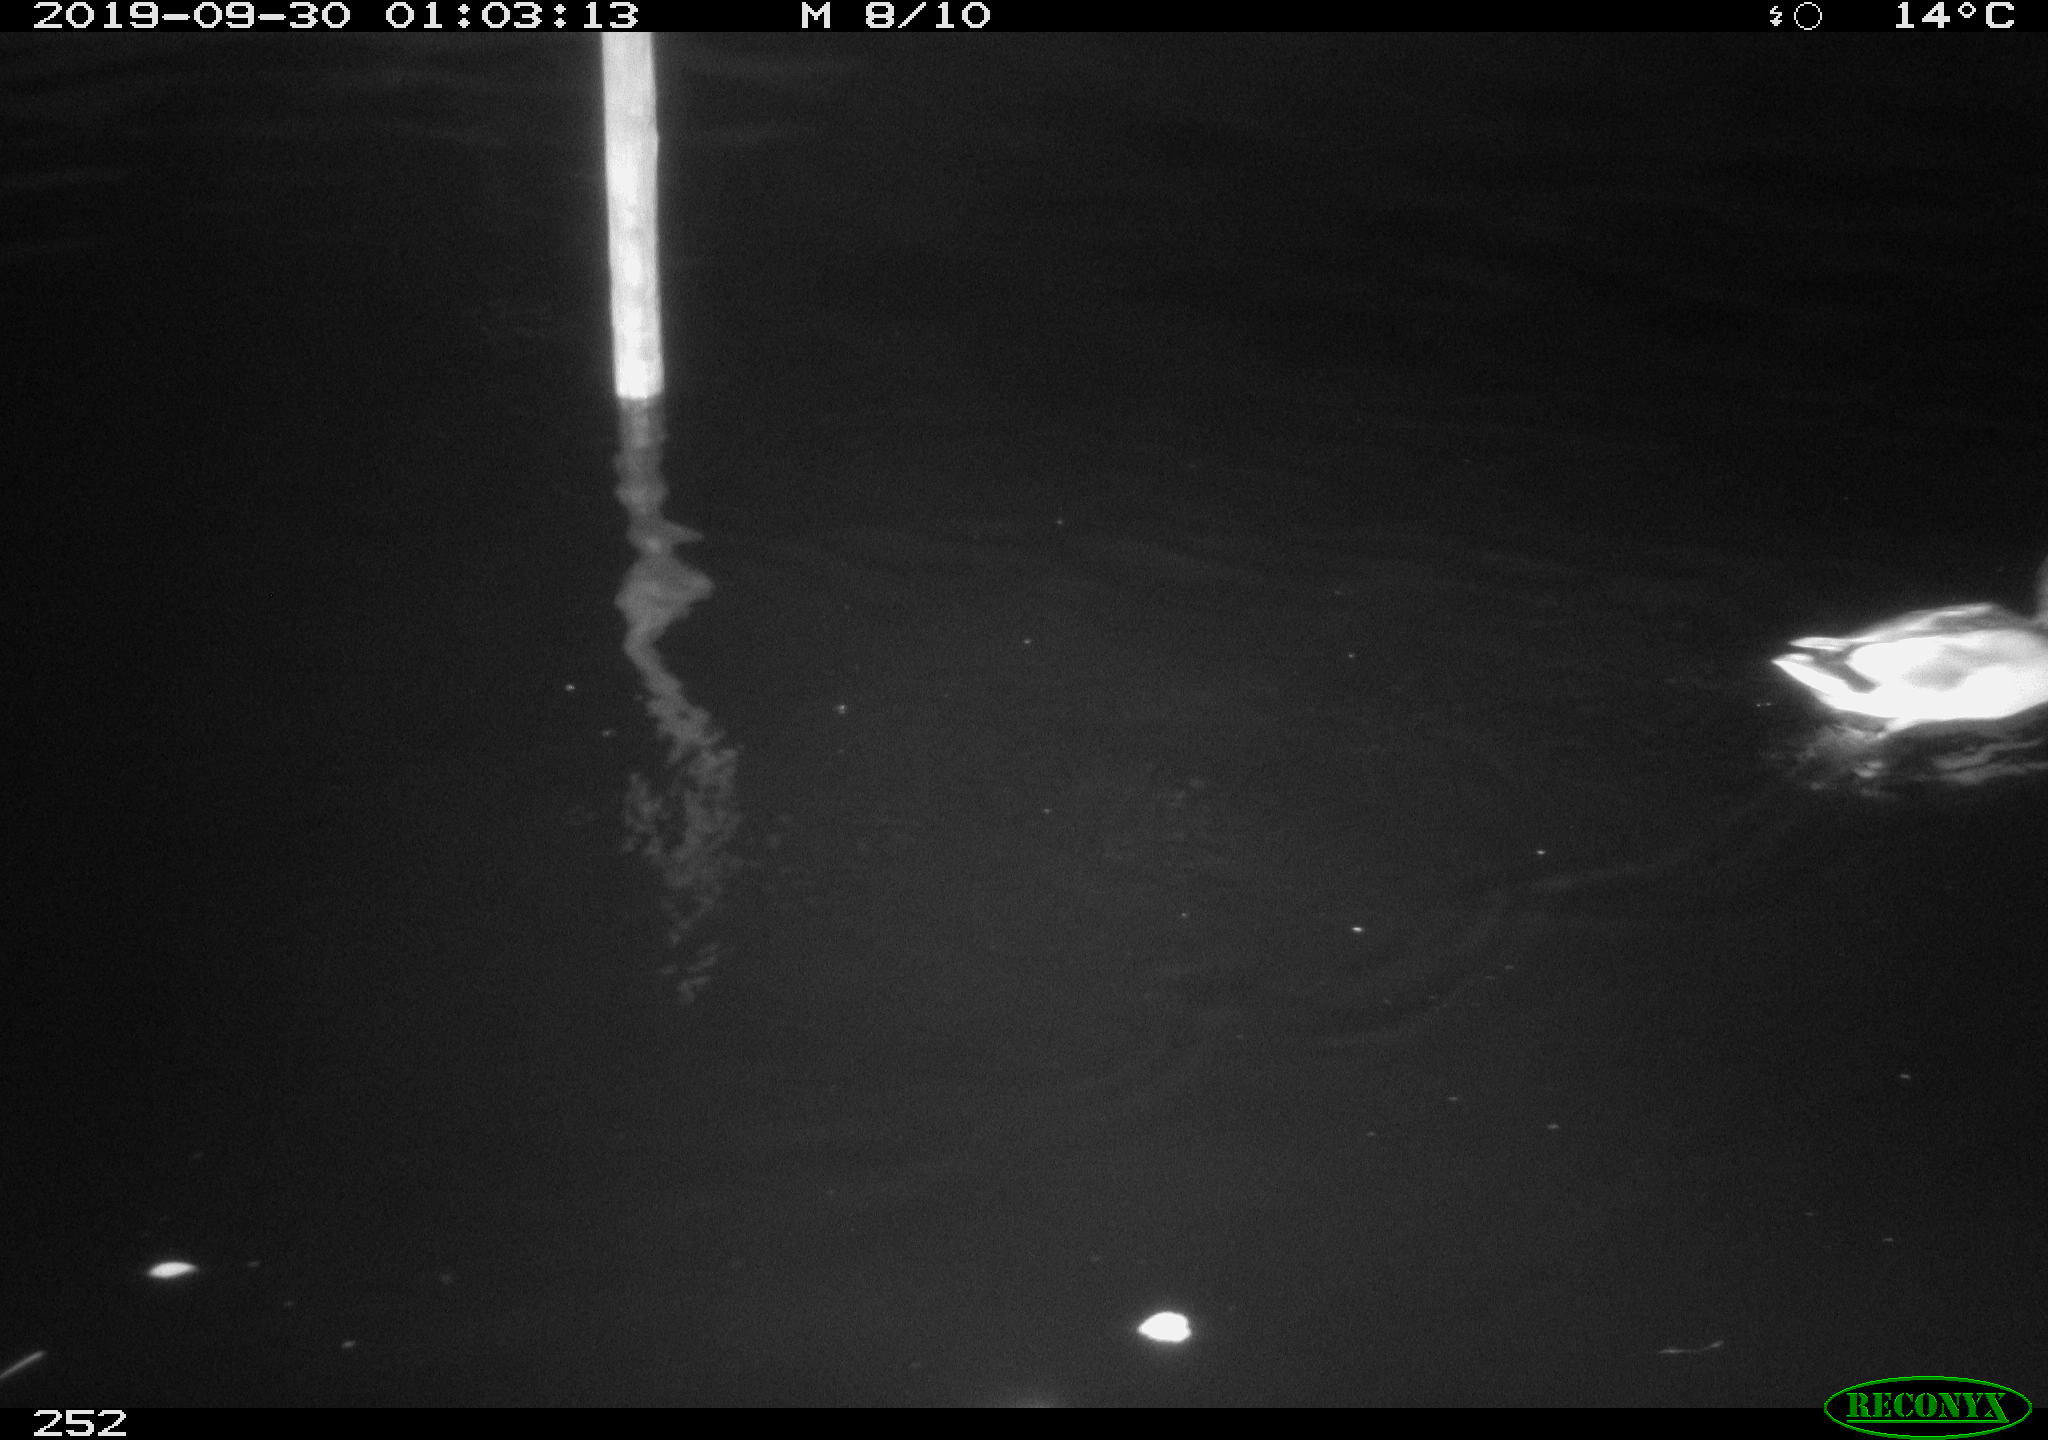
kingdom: Animalia
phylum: Chordata
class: Aves
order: Anseriformes
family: Anatidae
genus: Anas
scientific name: Anas platyrhynchos
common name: Mallard
